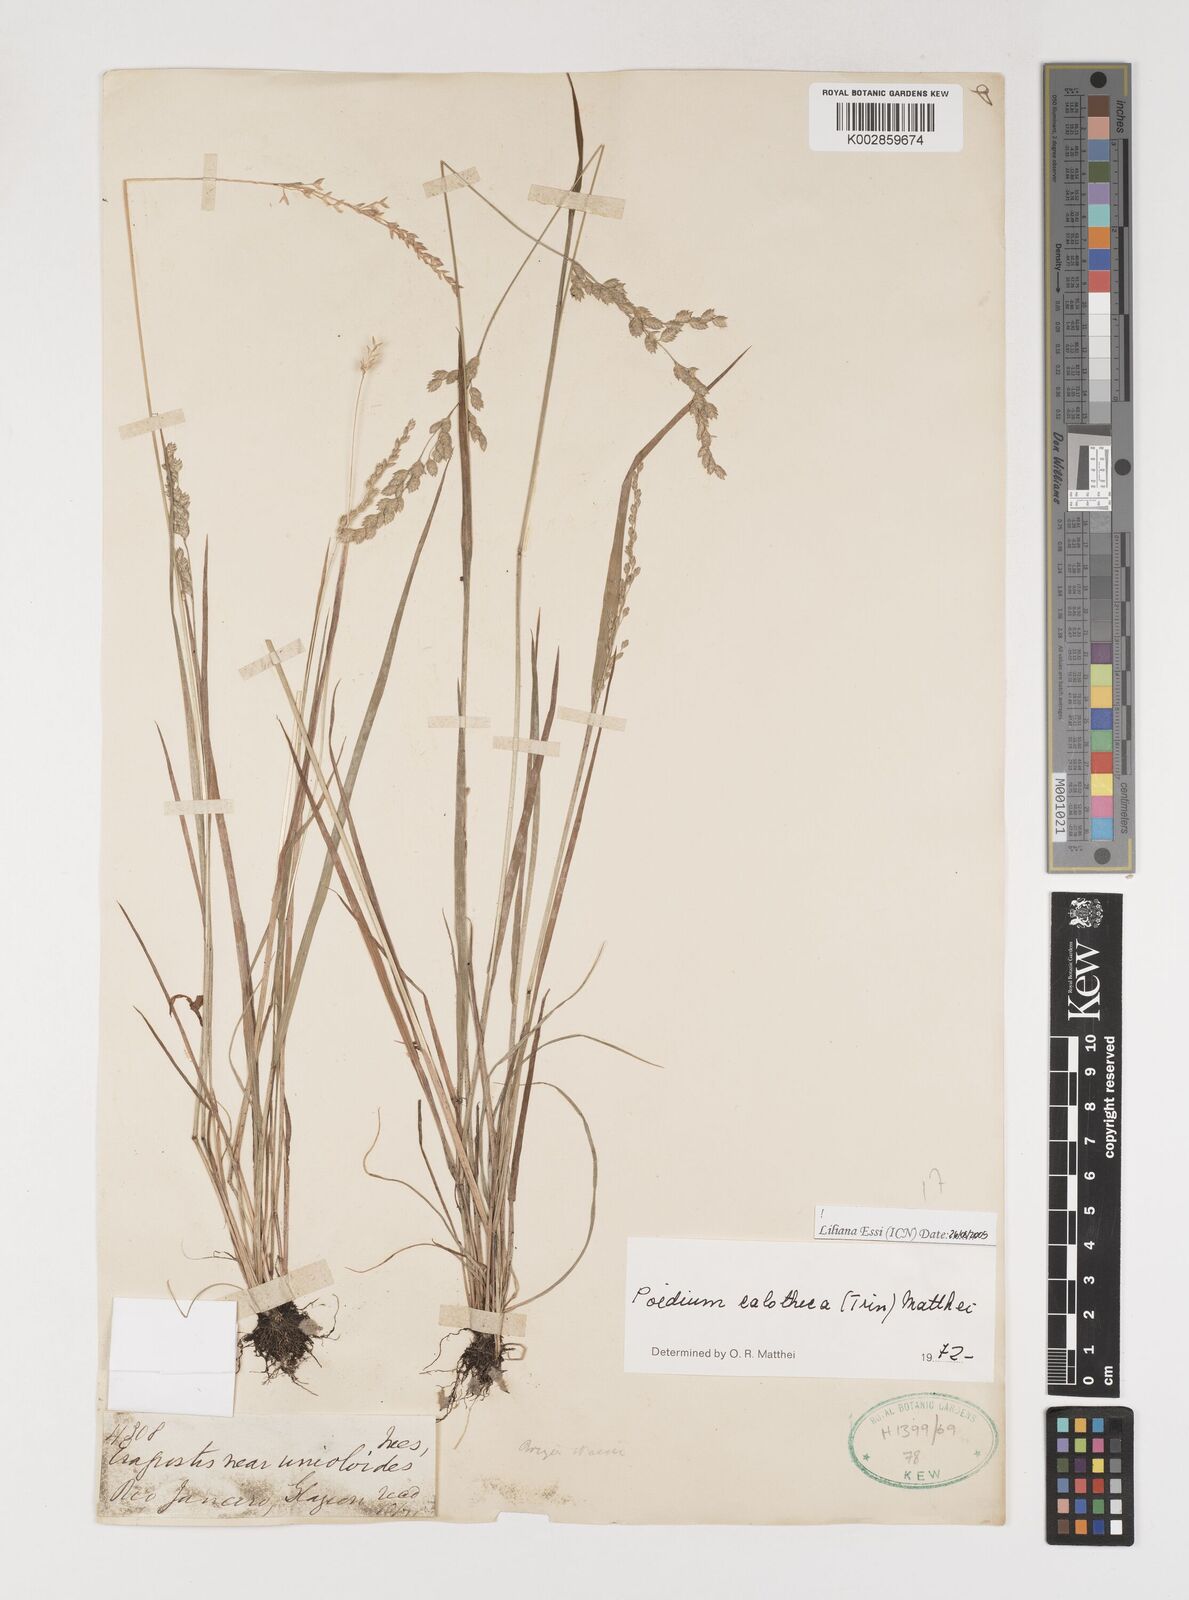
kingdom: Plantae
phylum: Tracheophyta
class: Liliopsida
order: Poales
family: Poaceae
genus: Poidium
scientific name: Poidium calotheca
